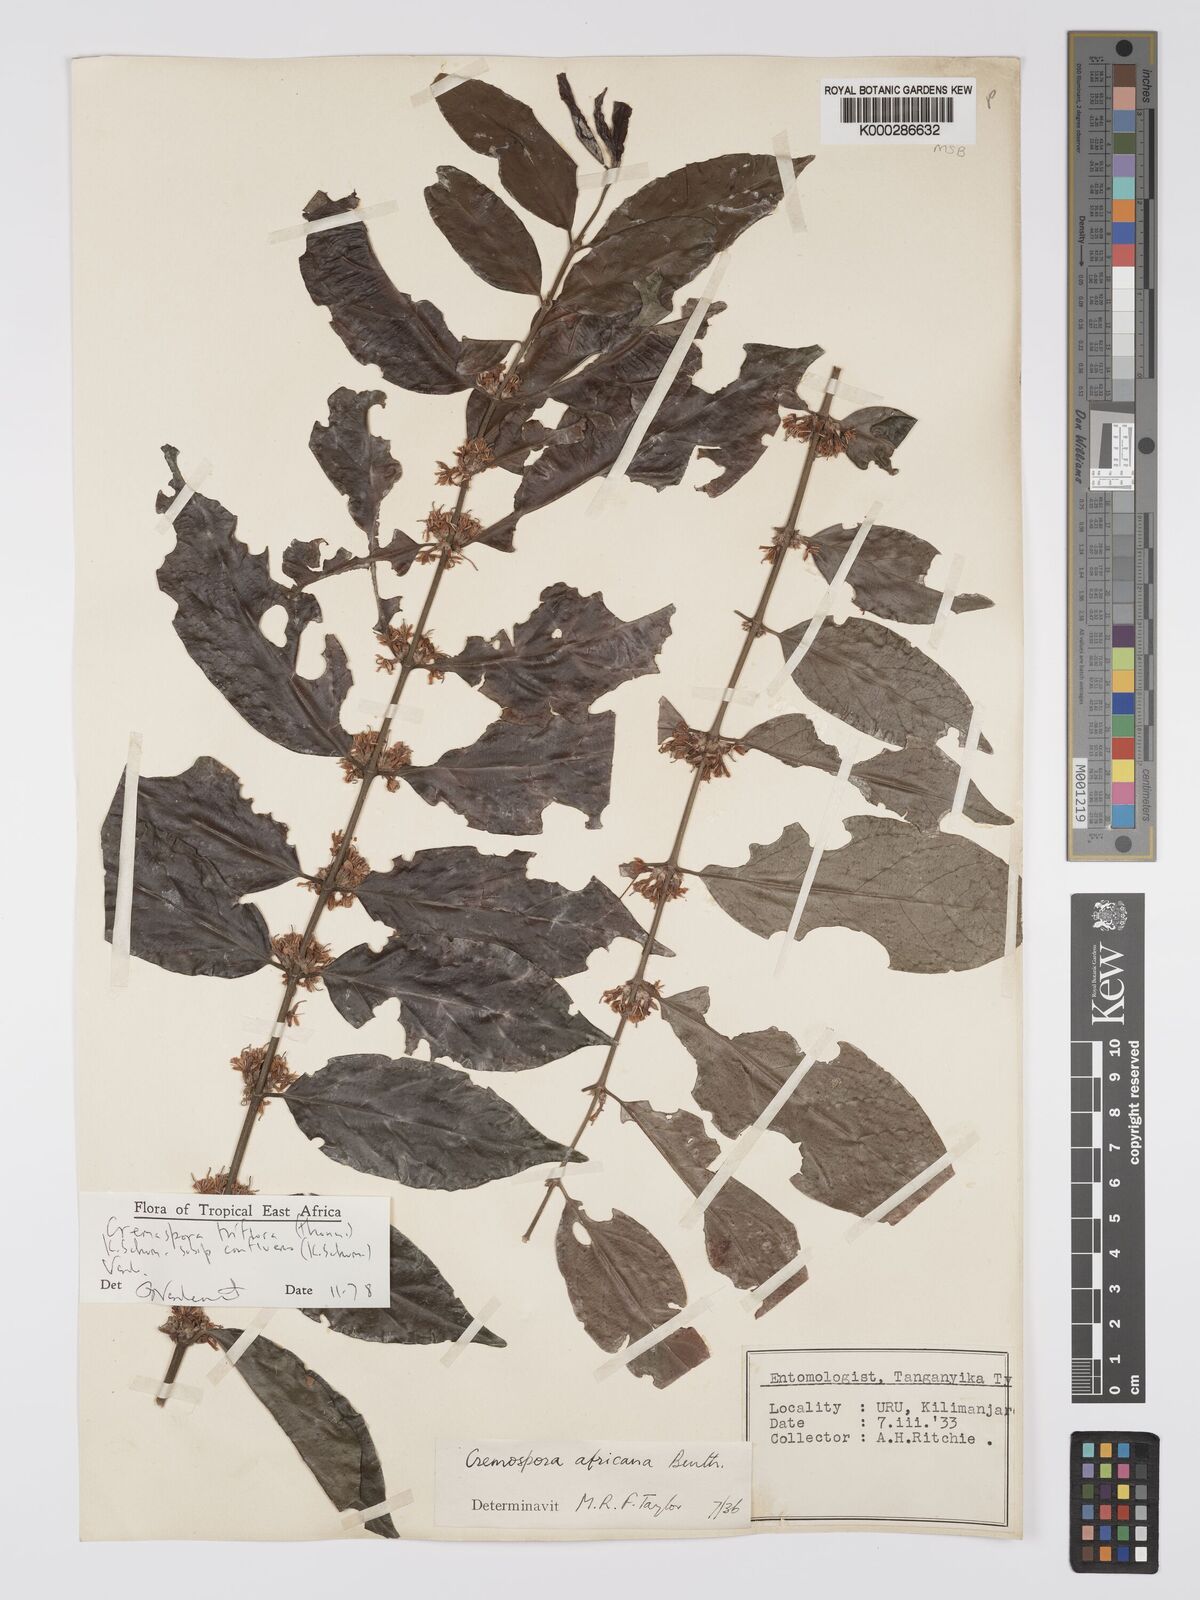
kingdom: Plantae
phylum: Tracheophyta
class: Magnoliopsida
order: Gentianales
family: Rubiaceae
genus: Cremaspora
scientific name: Cremaspora triflora
